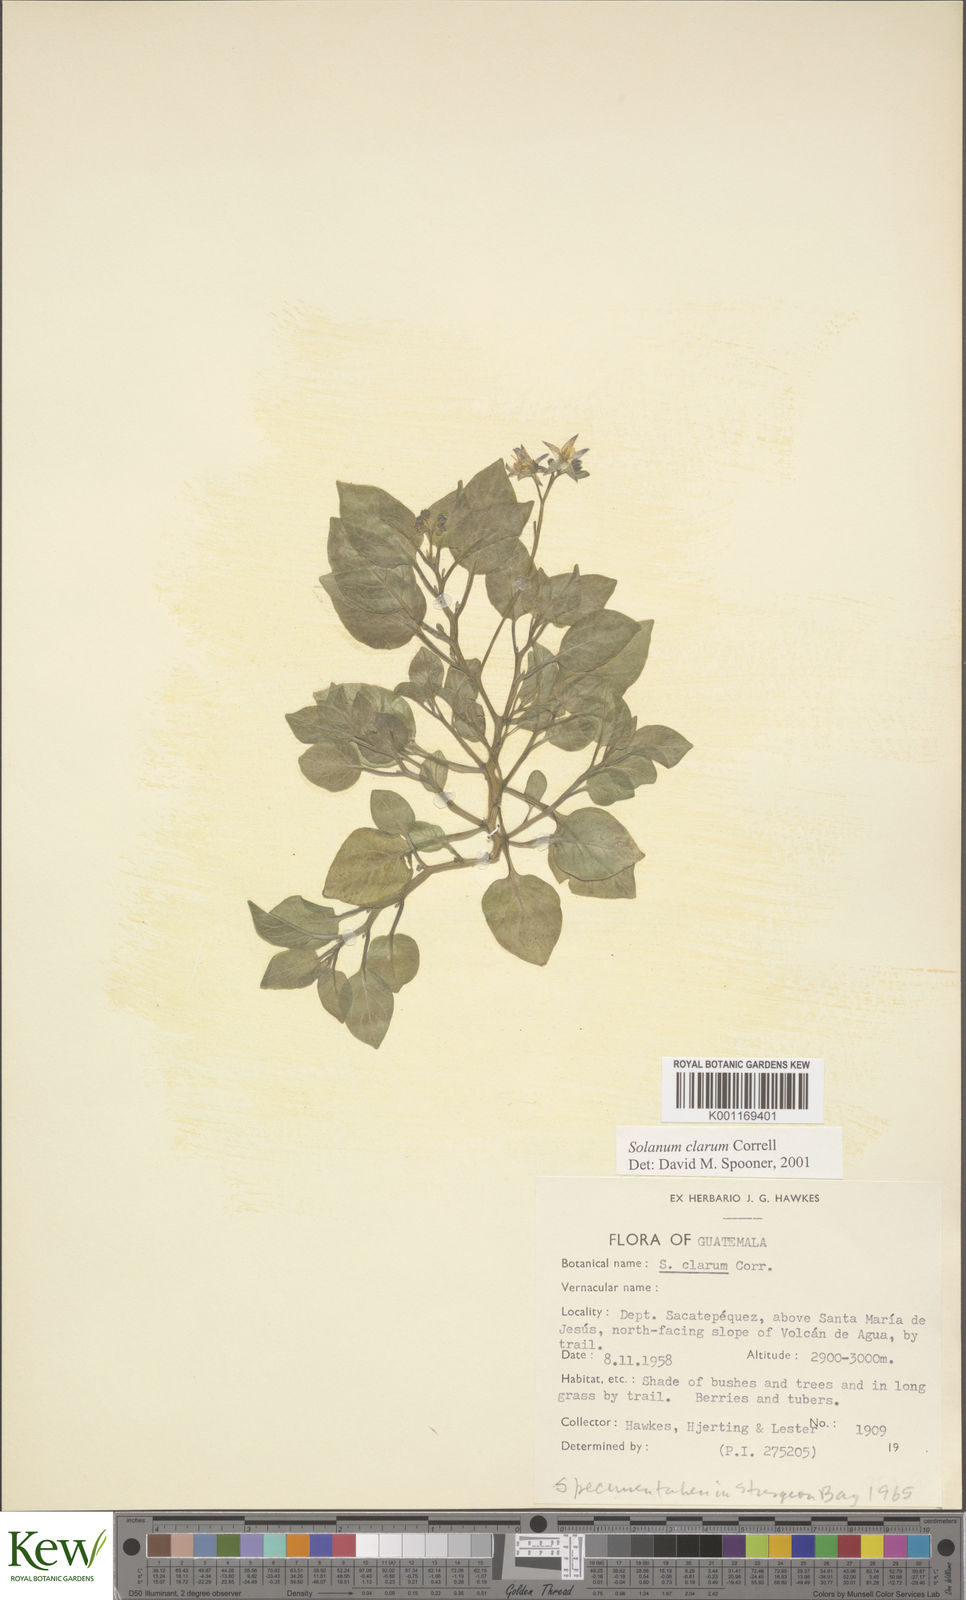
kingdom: Plantae
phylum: Tracheophyta
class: Magnoliopsida
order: Solanales
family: Solanaceae
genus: Solanum
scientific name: Solanum clarum
